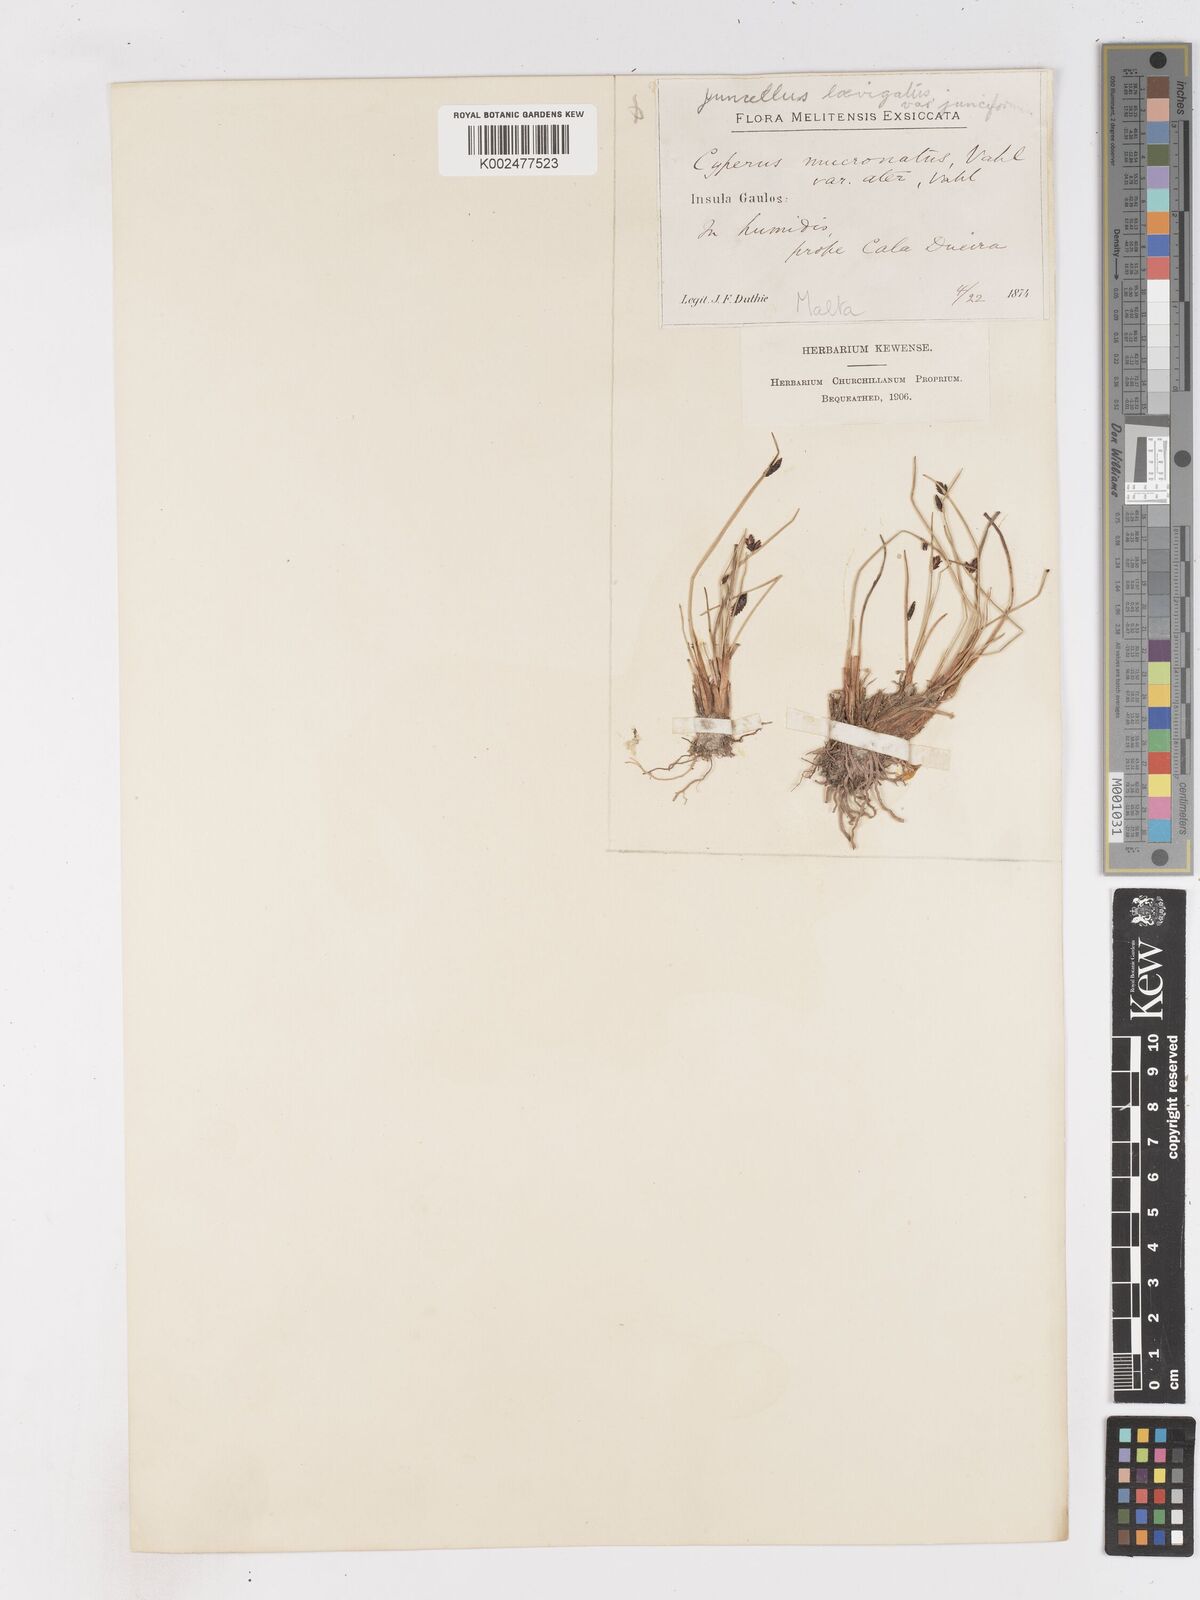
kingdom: Plantae
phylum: Tracheophyta
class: Liliopsida
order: Poales
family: Cyperaceae
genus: Cyperus
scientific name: Cyperus laevigatus
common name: Smooth flat sedge
